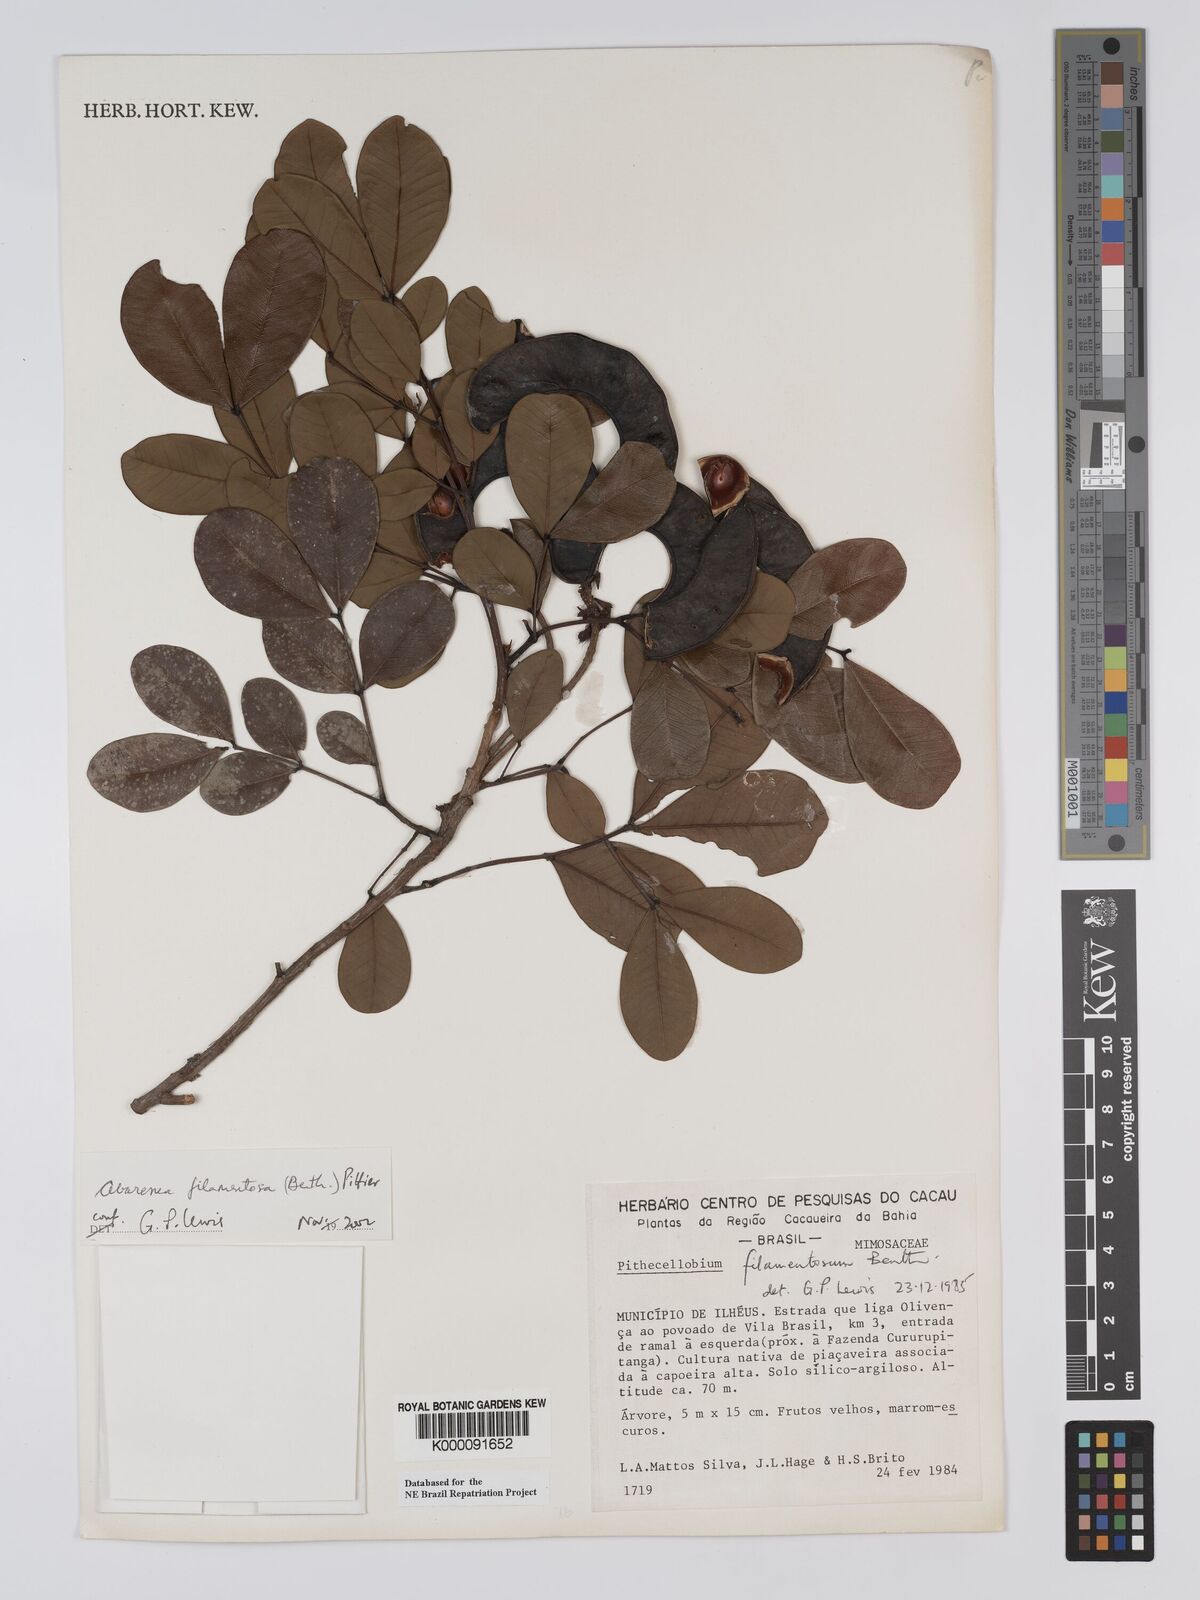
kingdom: Plantae
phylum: Tracheophyta
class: Magnoliopsida
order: Fabales
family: Fabaceae
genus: Jupunba
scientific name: Jupunba filamentosa
